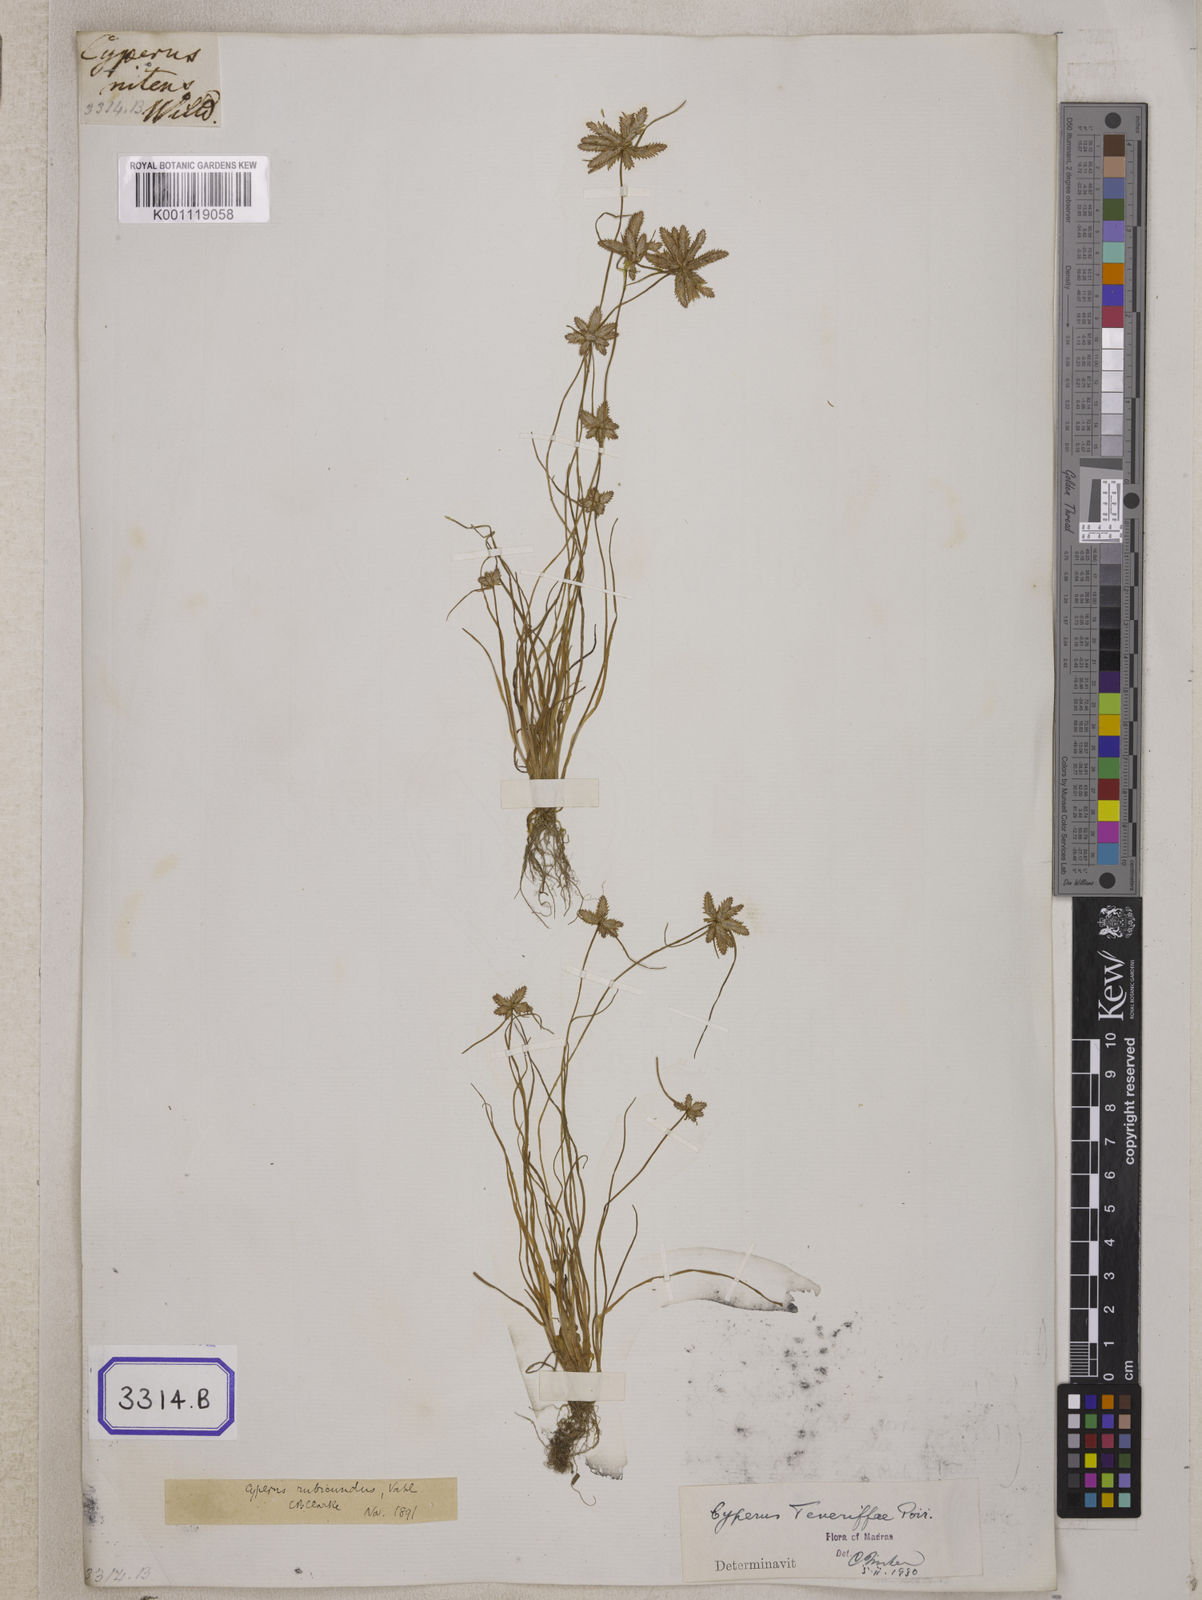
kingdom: Plantae
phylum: Tracheophyta
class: Liliopsida
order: Poales
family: Cyperaceae
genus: Cyperus
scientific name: Cyperus
